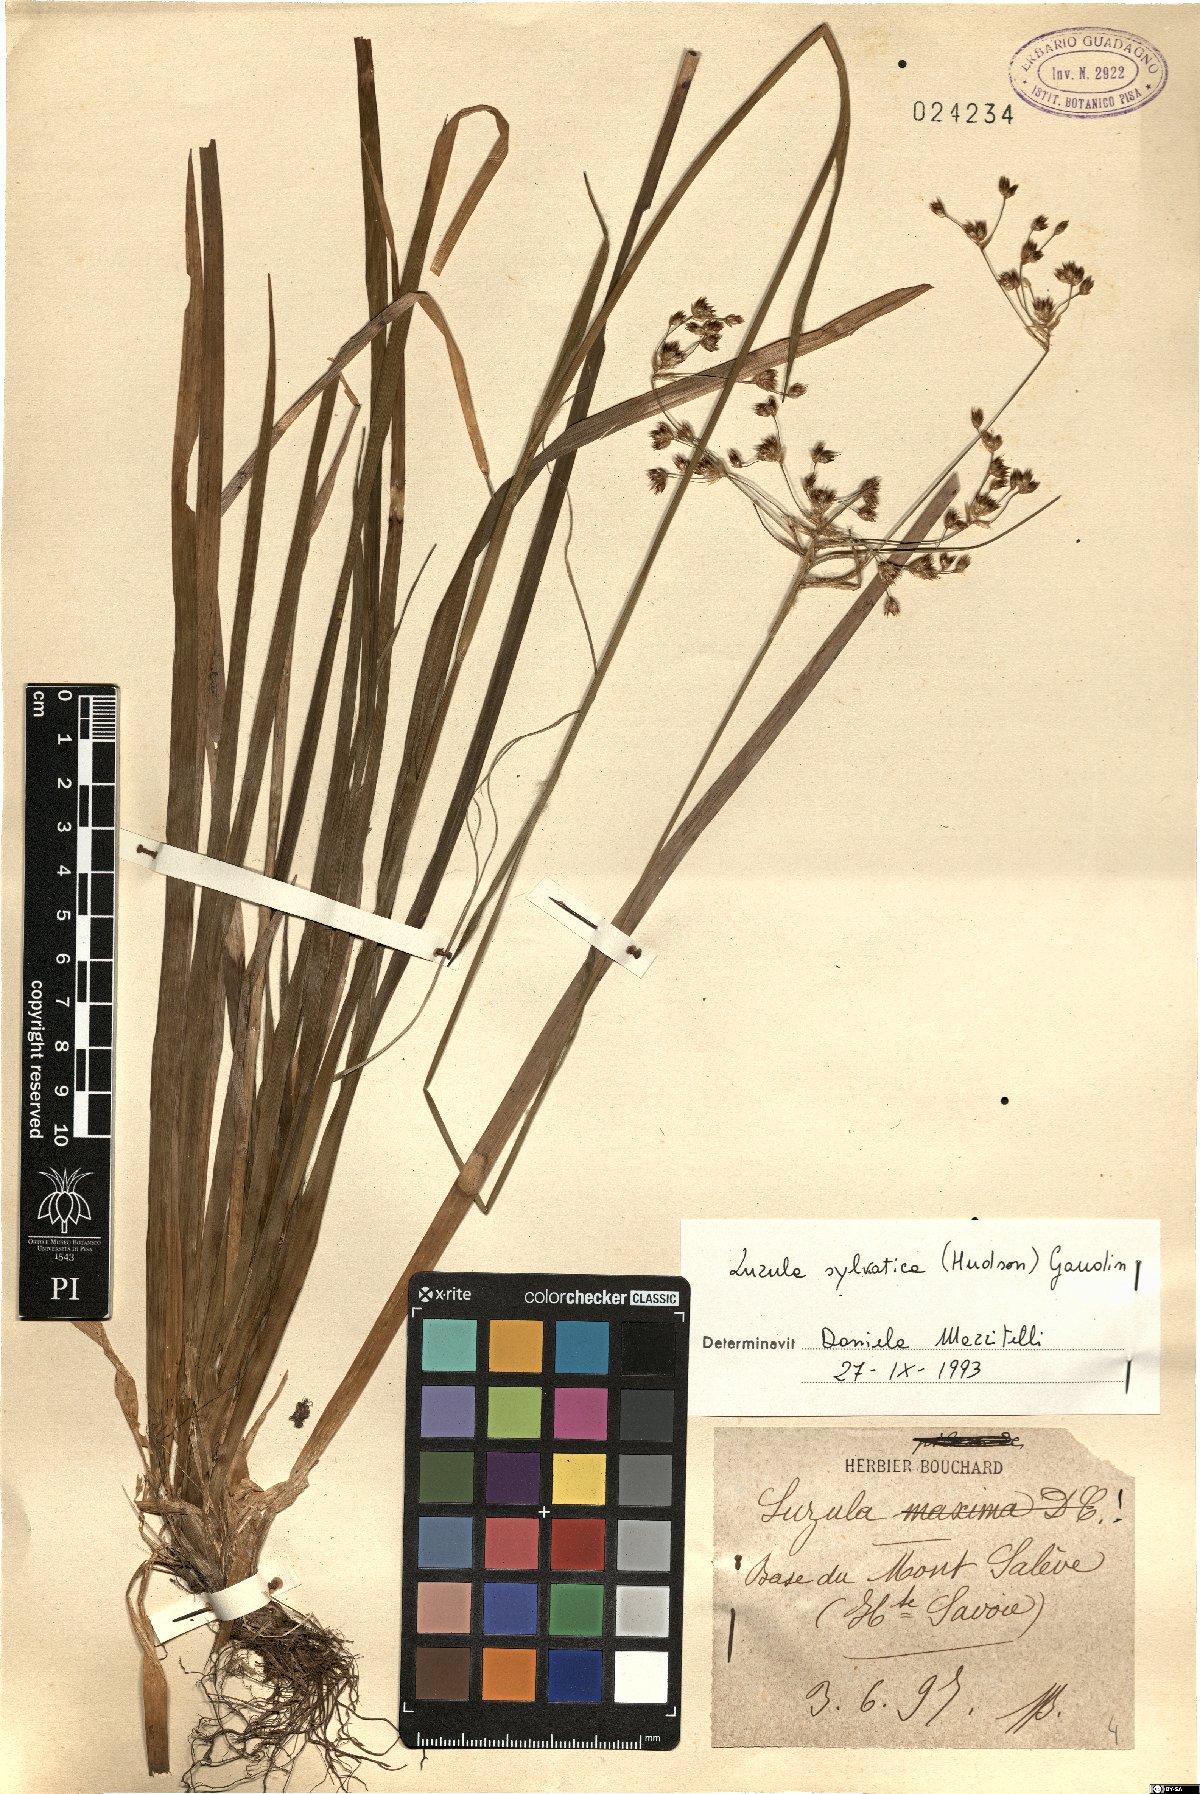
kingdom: Plantae
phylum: Tracheophyta
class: Liliopsida
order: Poales
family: Juncaceae
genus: Luzula
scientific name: Luzula sylvatica
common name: Great wood-rush
